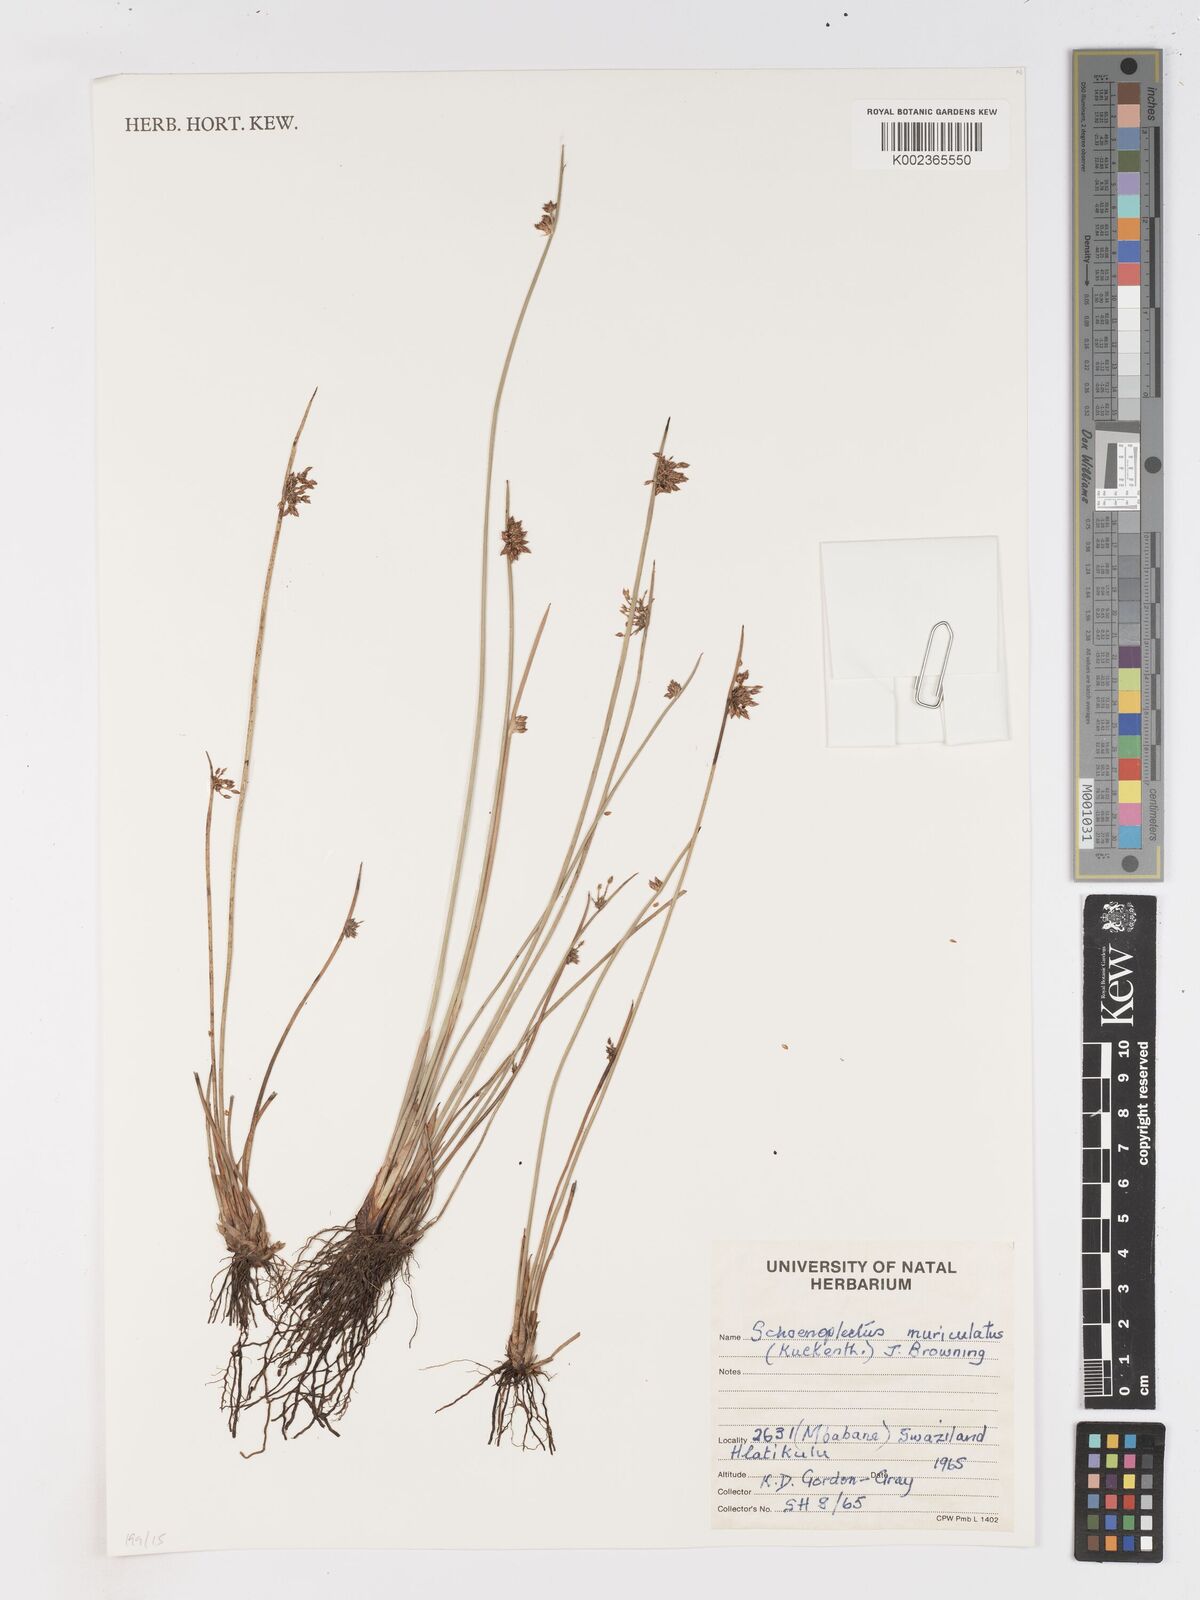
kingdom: Plantae
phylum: Tracheophyta
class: Liliopsida
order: Poales
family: Cyperaceae
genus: Schoenoplectiella
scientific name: Schoenoplectiella muriculata
